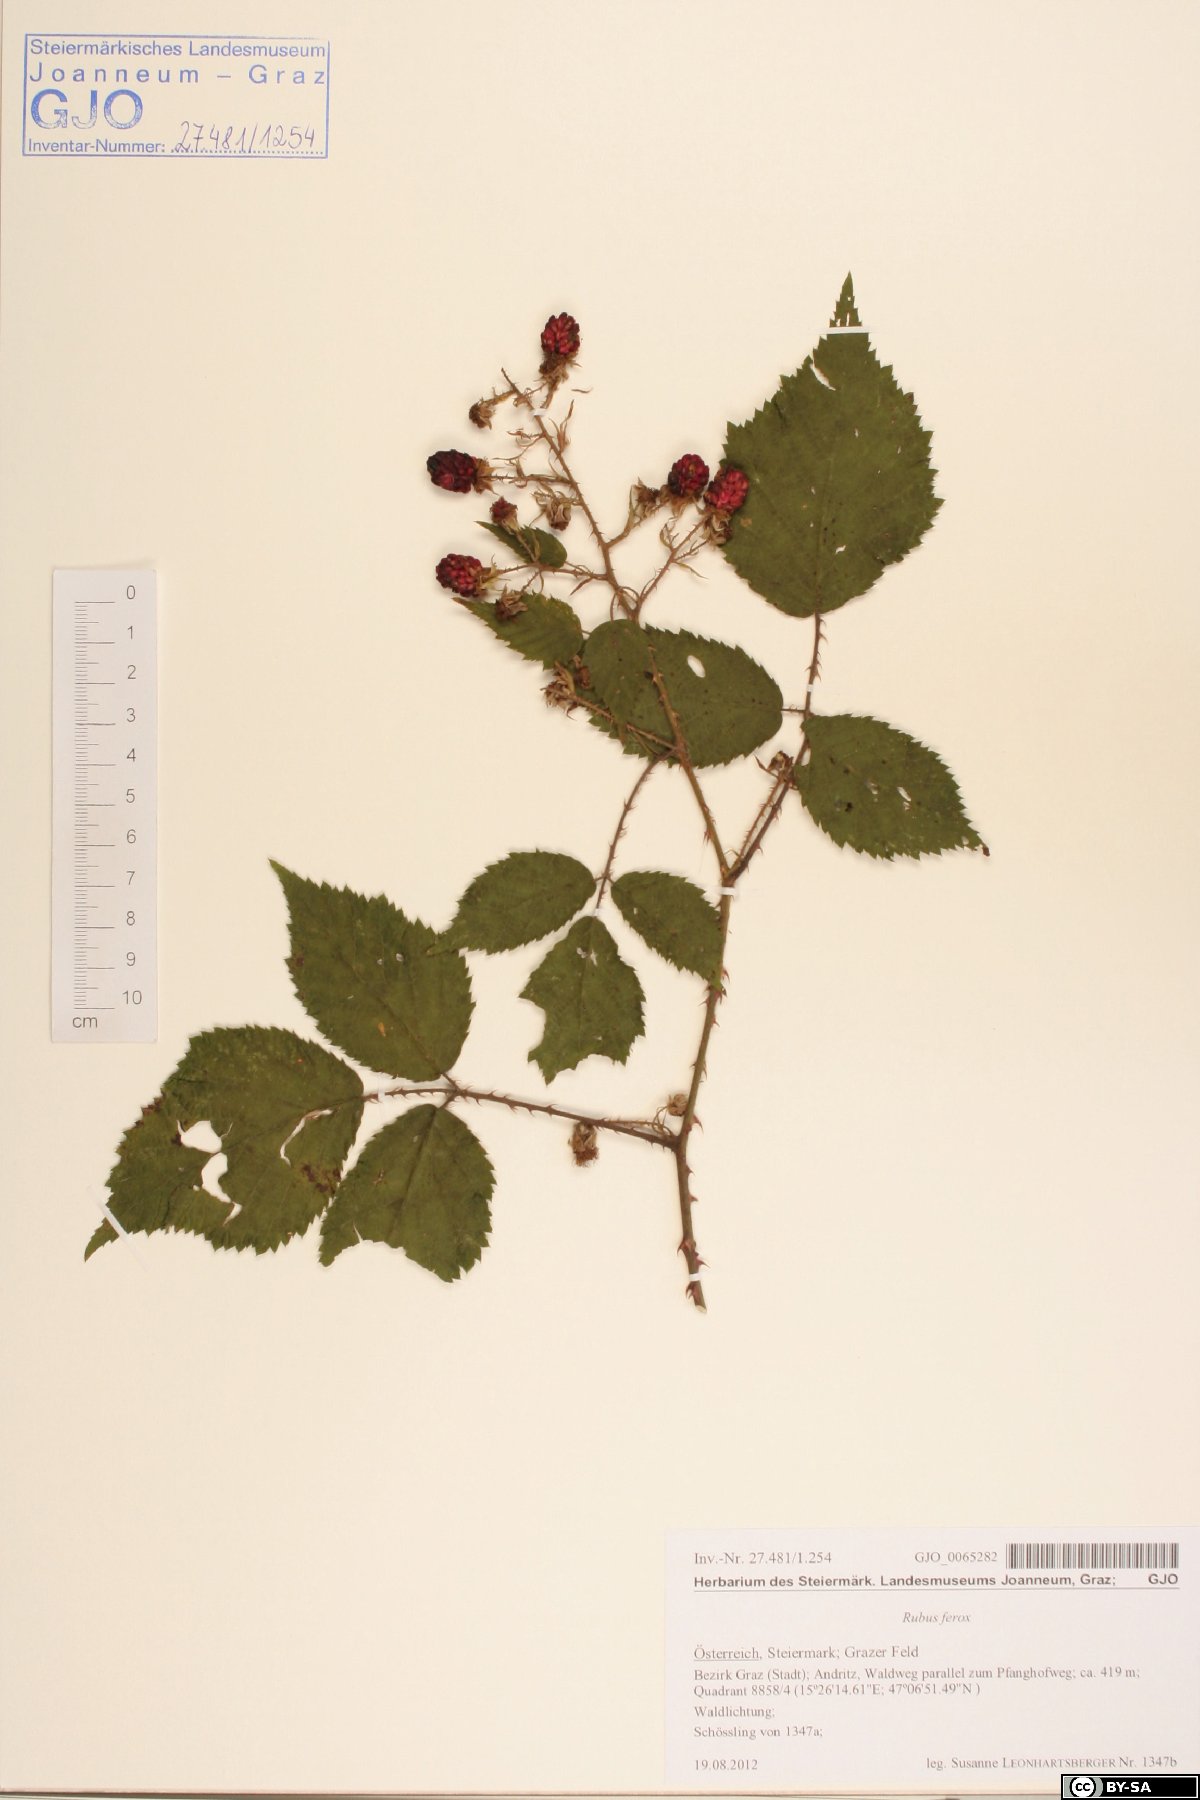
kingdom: Plantae
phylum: Tracheophyta
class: Magnoliopsida
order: Rosales
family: Rosaceae
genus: Rubus
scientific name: Rubus ferox
